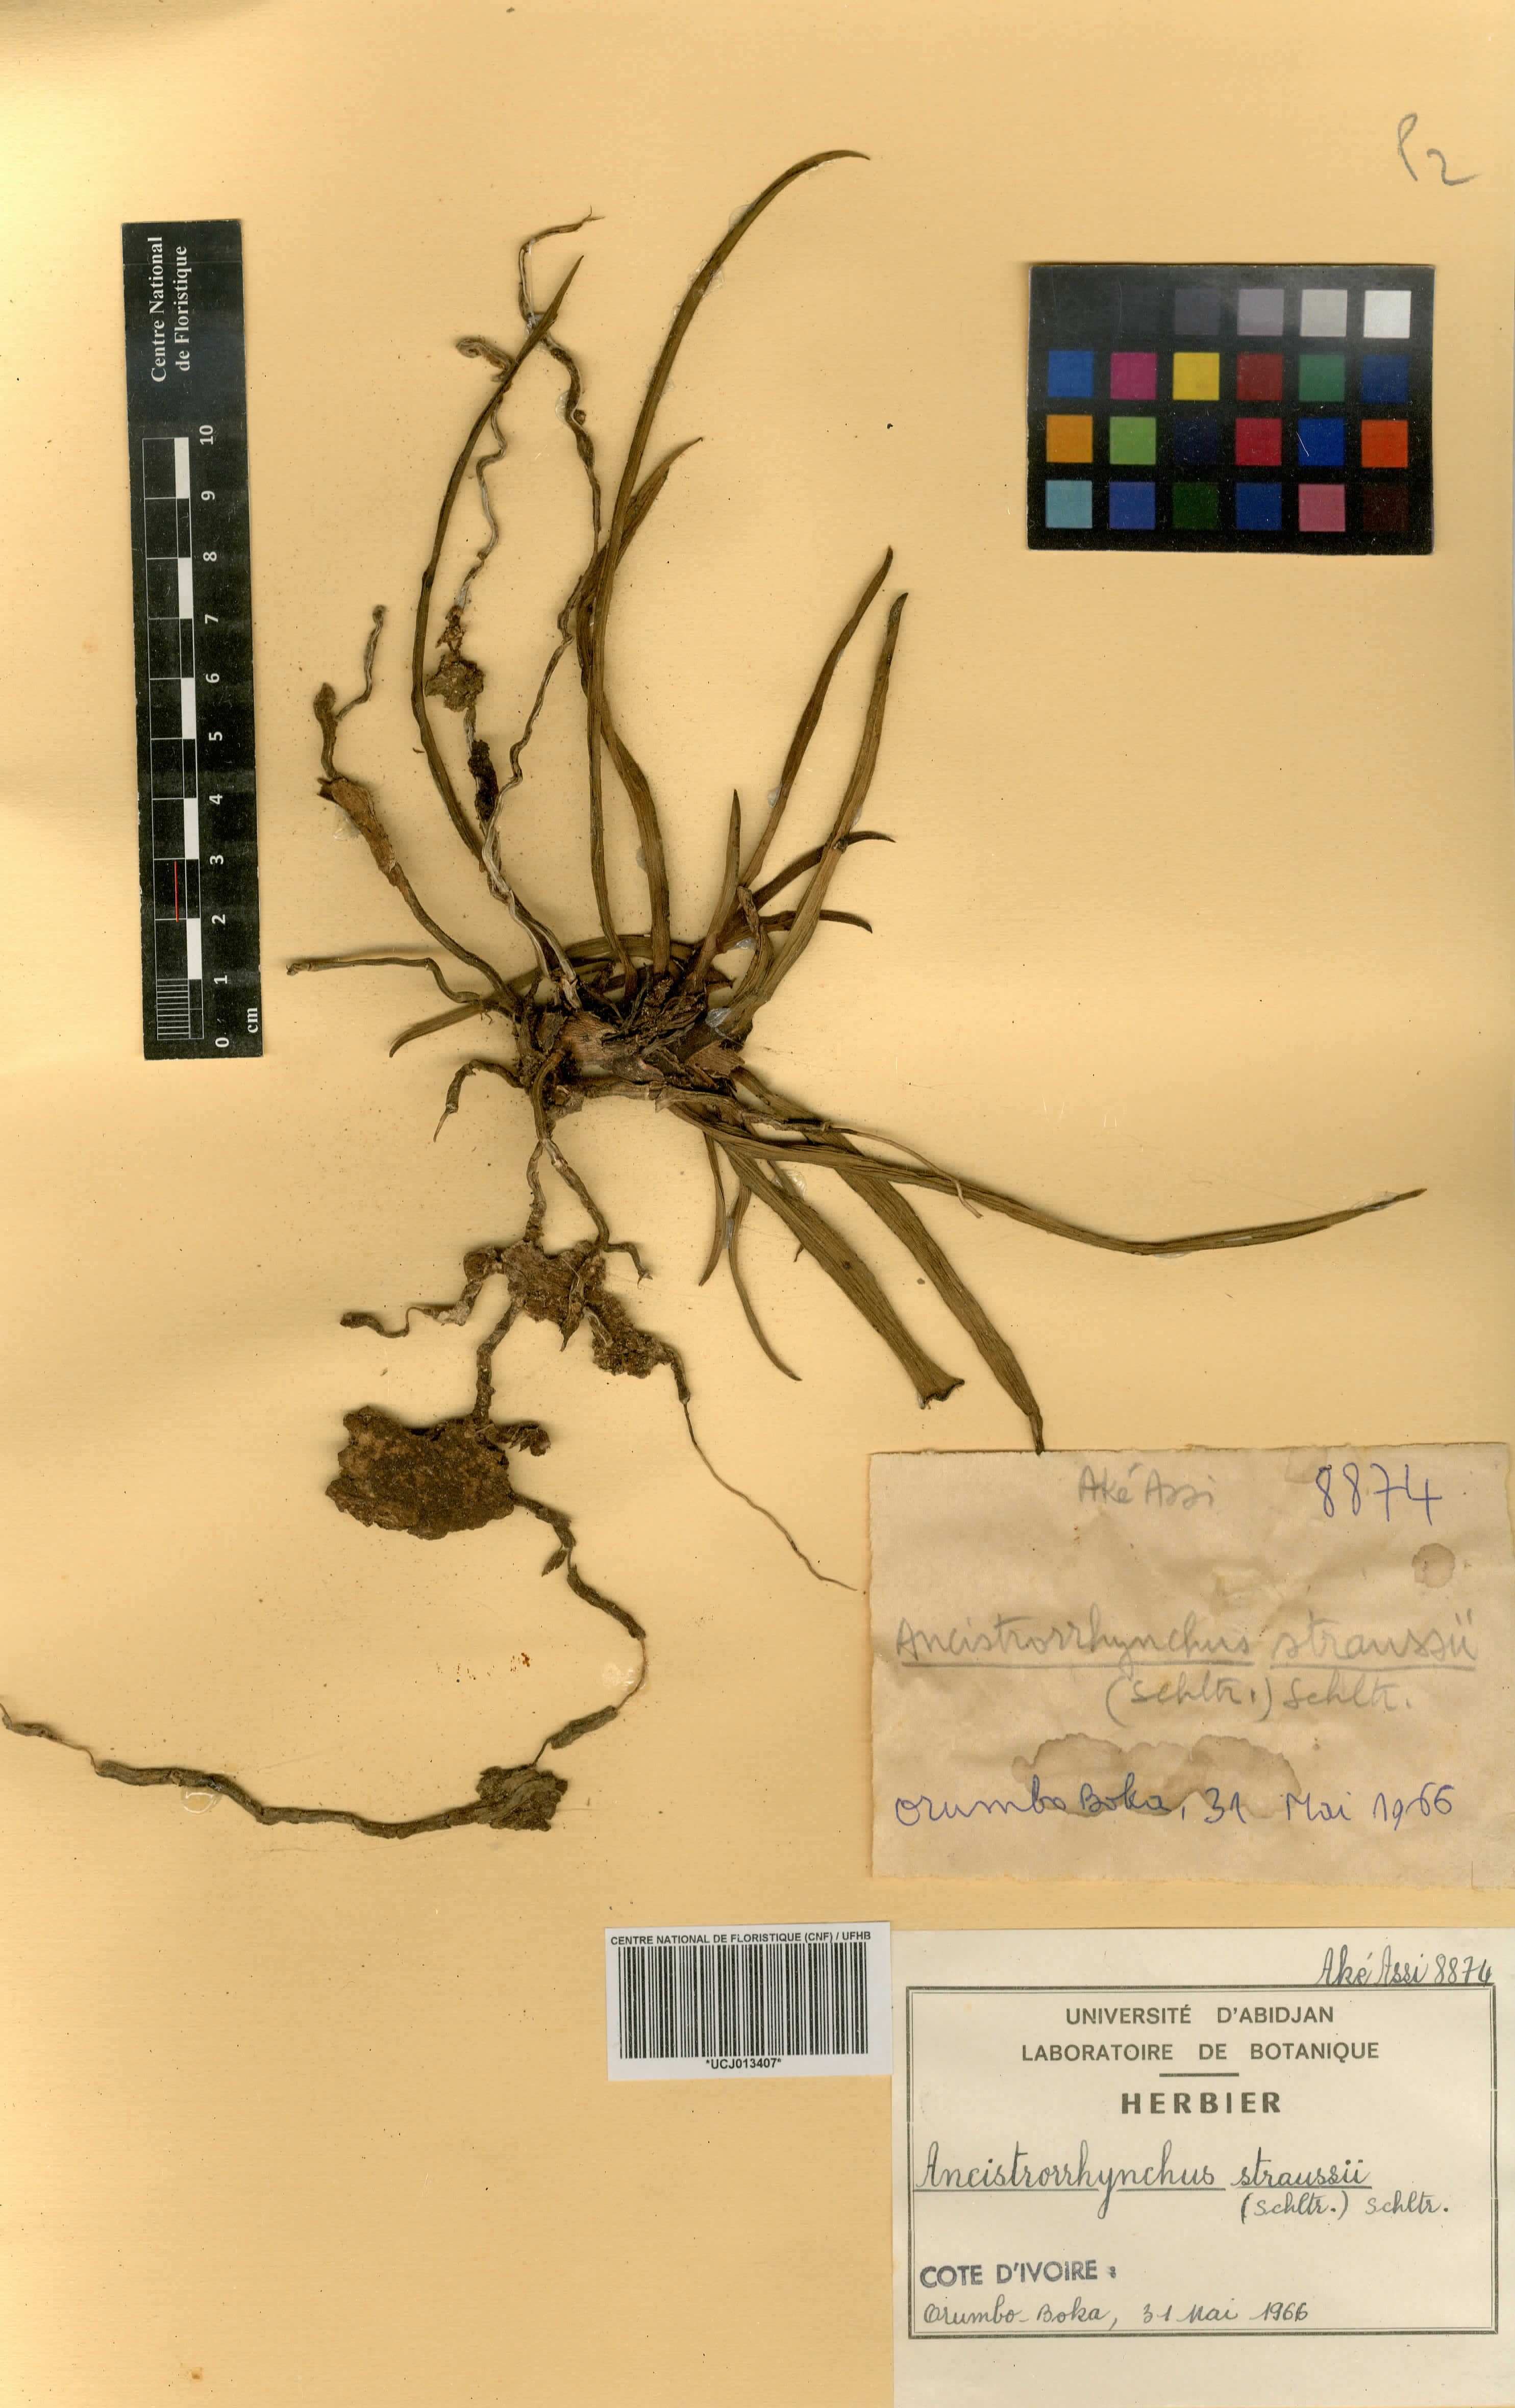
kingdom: Plantae
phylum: Tracheophyta
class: Liliopsida
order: Asparagales
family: Orchidaceae
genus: Ancistrorhynchus
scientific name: Ancistrorhynchus straussii
